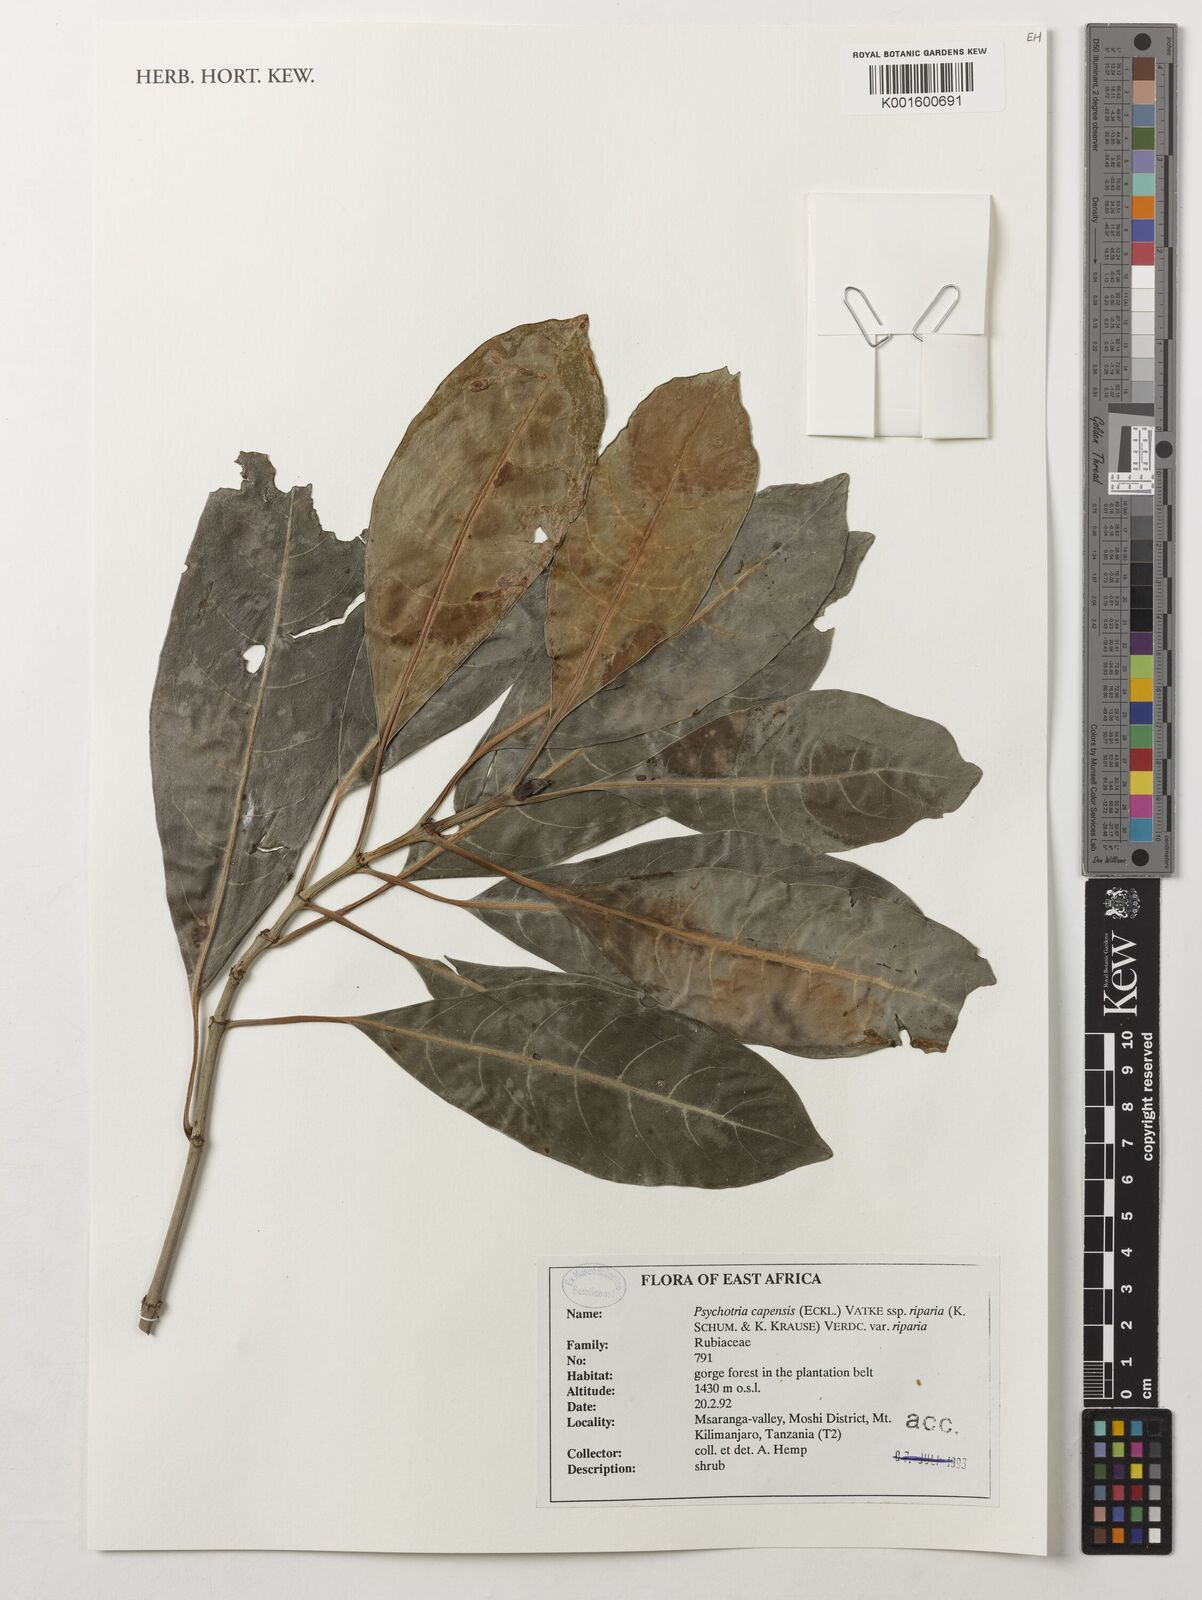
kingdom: Plantae
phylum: Tracheophyta
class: Magnoliopsida
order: Gentianales
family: Rubiaceae
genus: Psychotria
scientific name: Psychotria capensis
